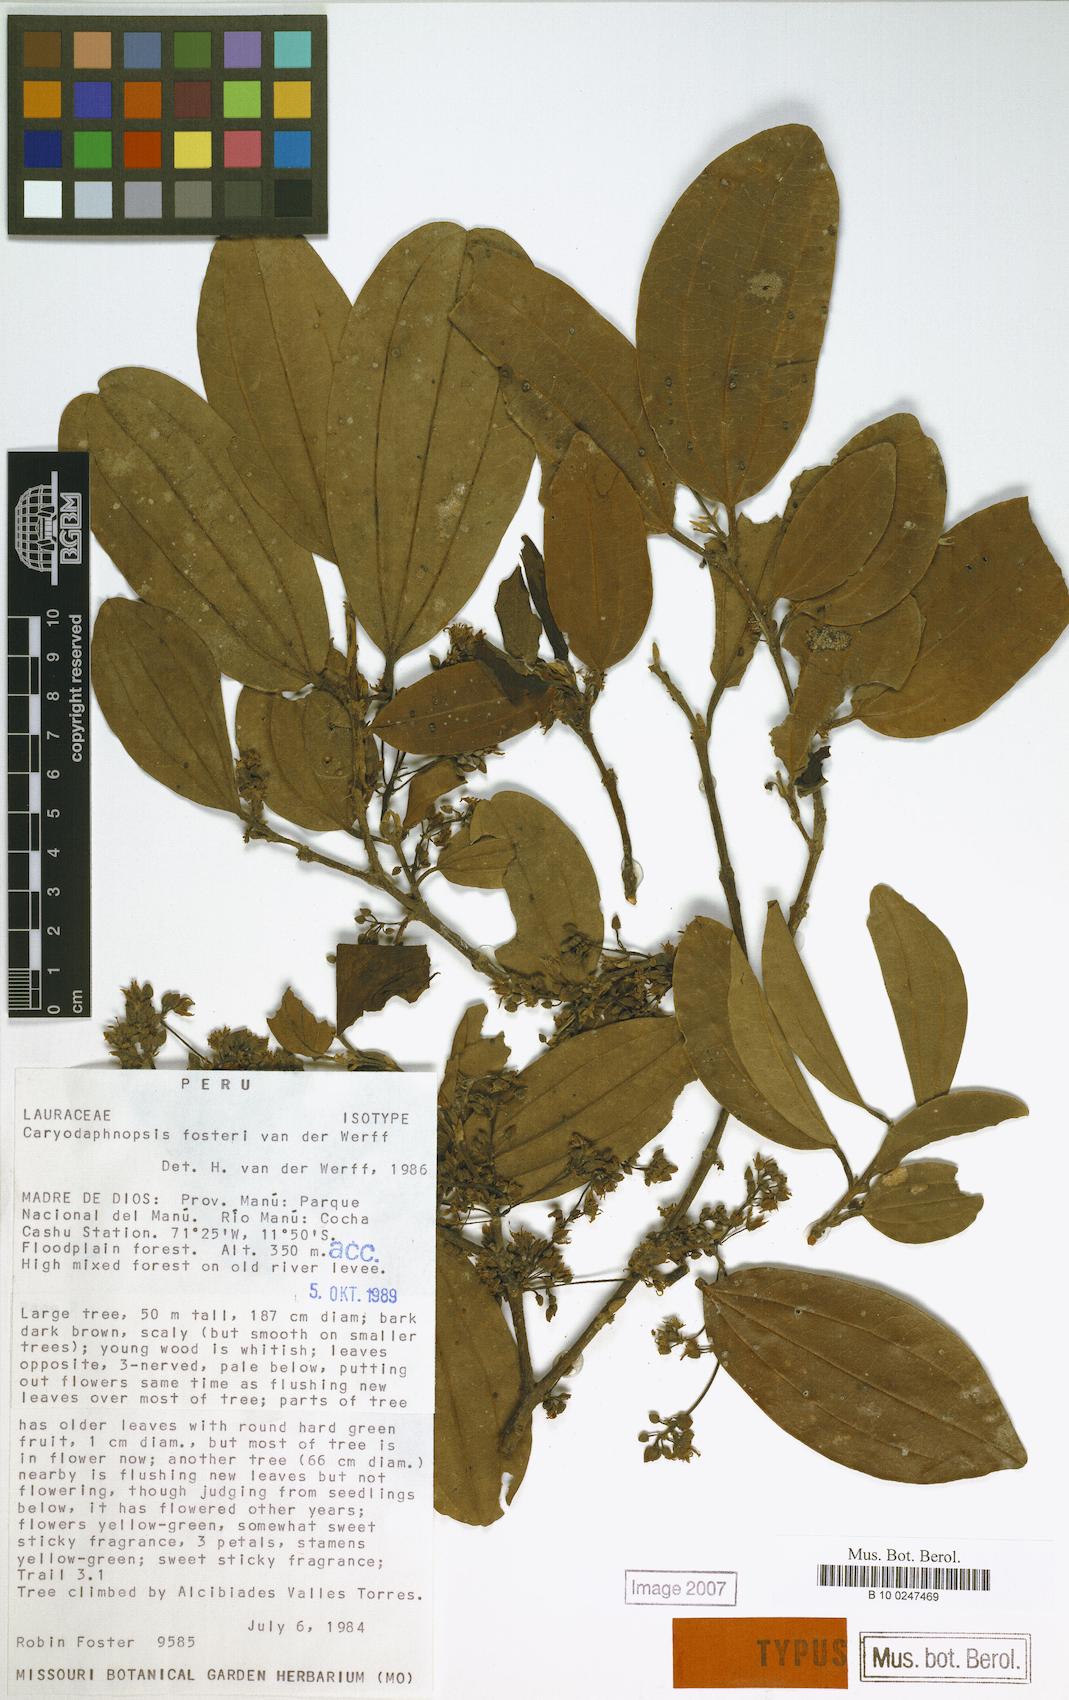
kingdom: Plantae
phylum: Tracheophyta
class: Magnoliopsida
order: Laurales
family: Lauraceae
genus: Caryodaphnopsis
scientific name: Caryodaphnopsis fosteri
